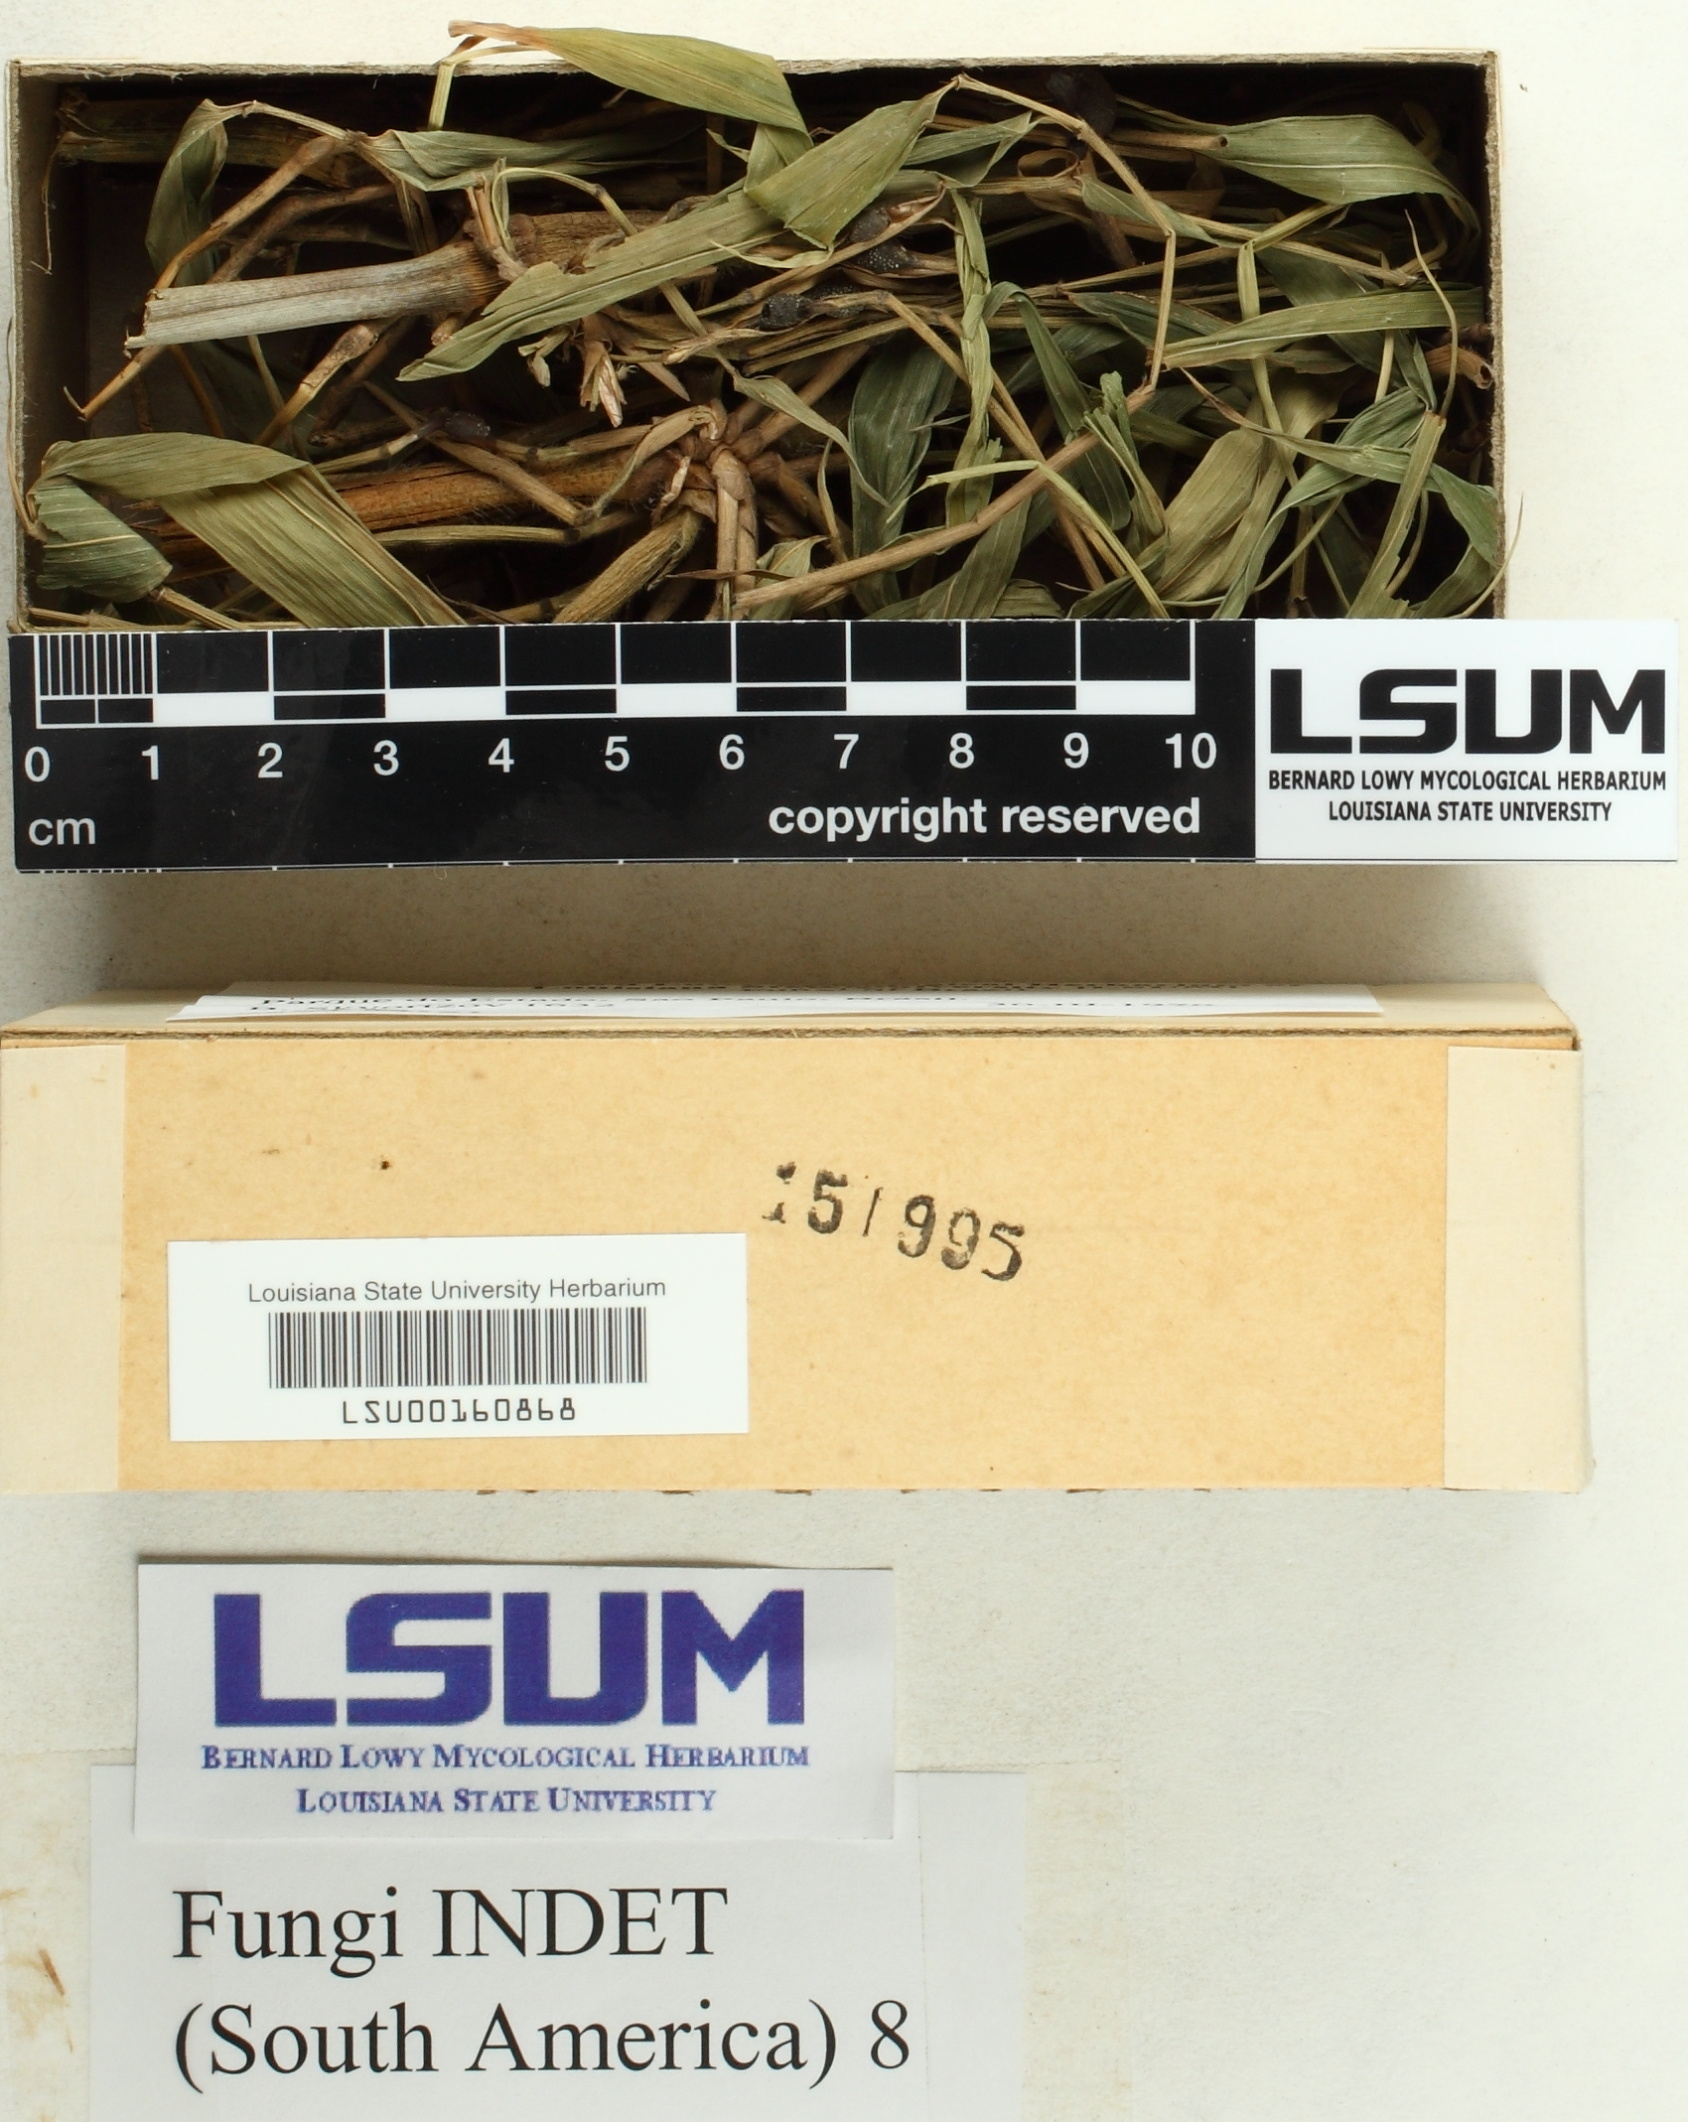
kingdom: Fungi
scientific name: Fungi
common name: Fungi
